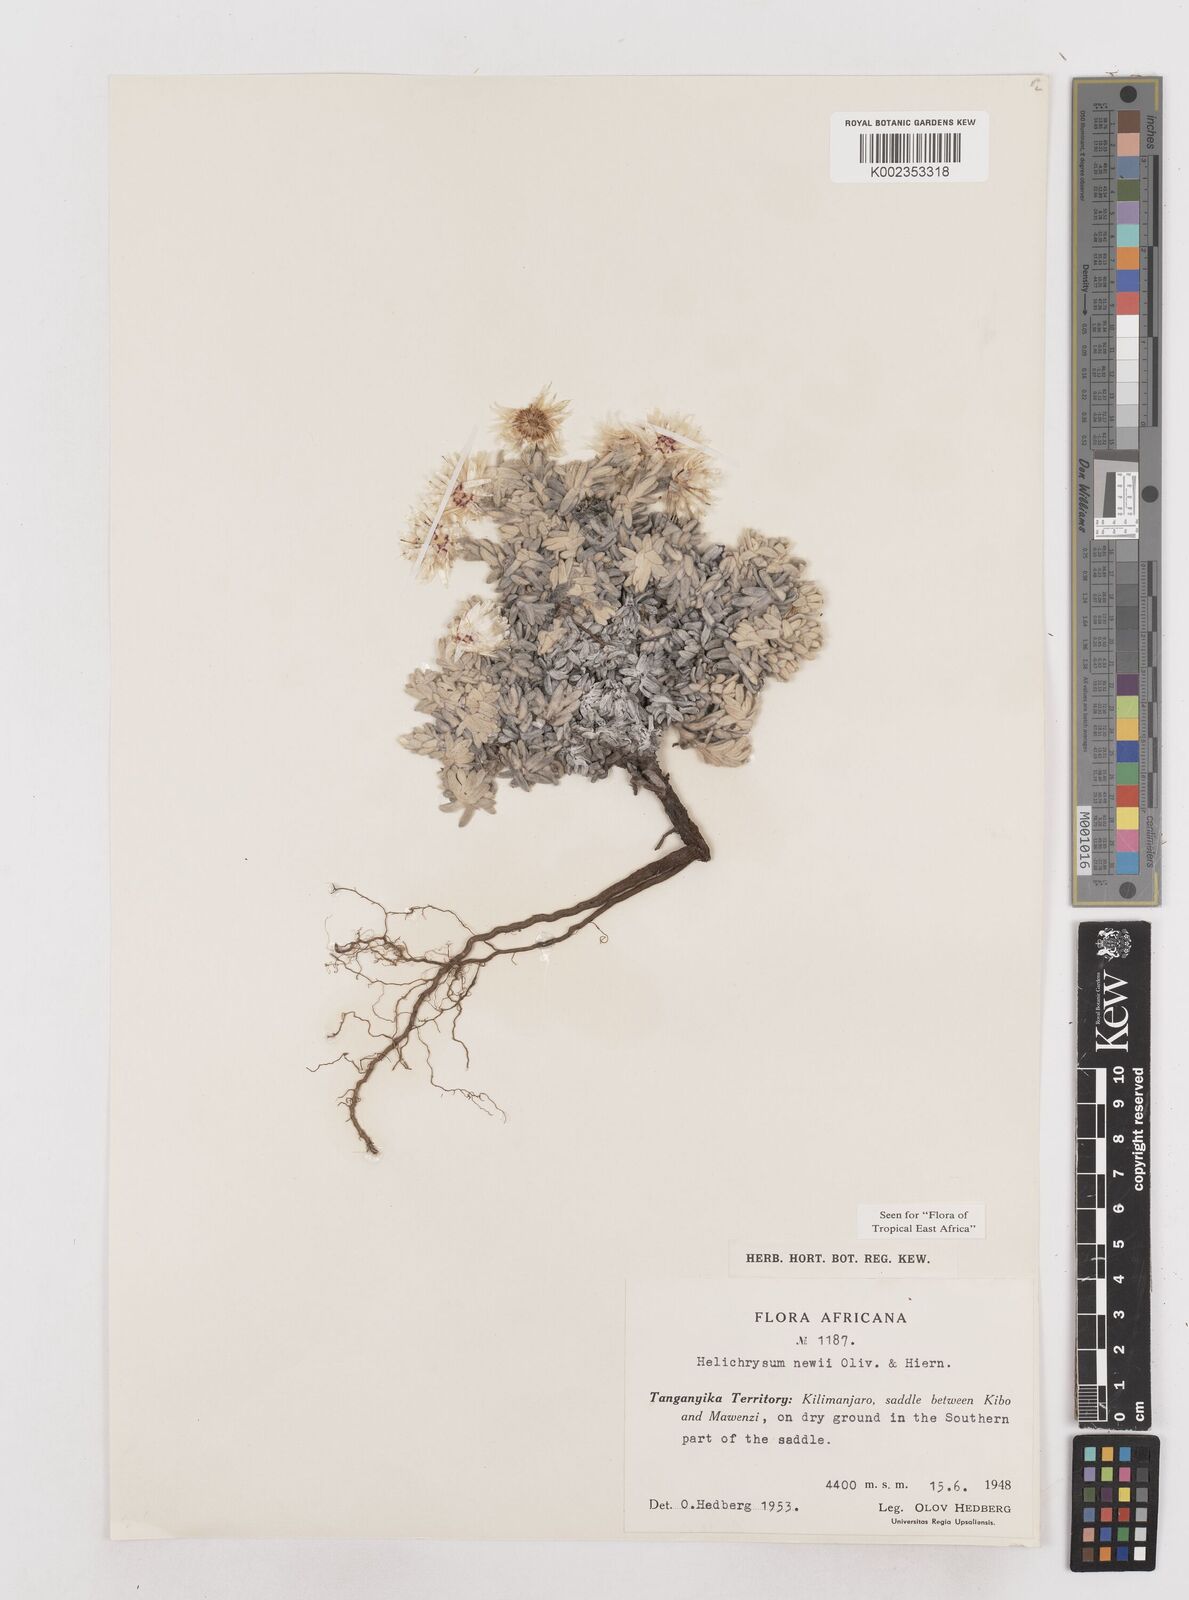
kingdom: Plantae
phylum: Tracheophyta
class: Magnoliopsida
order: Asterales
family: Asteraceae
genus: Helichrysum
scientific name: Helichrysum newii
